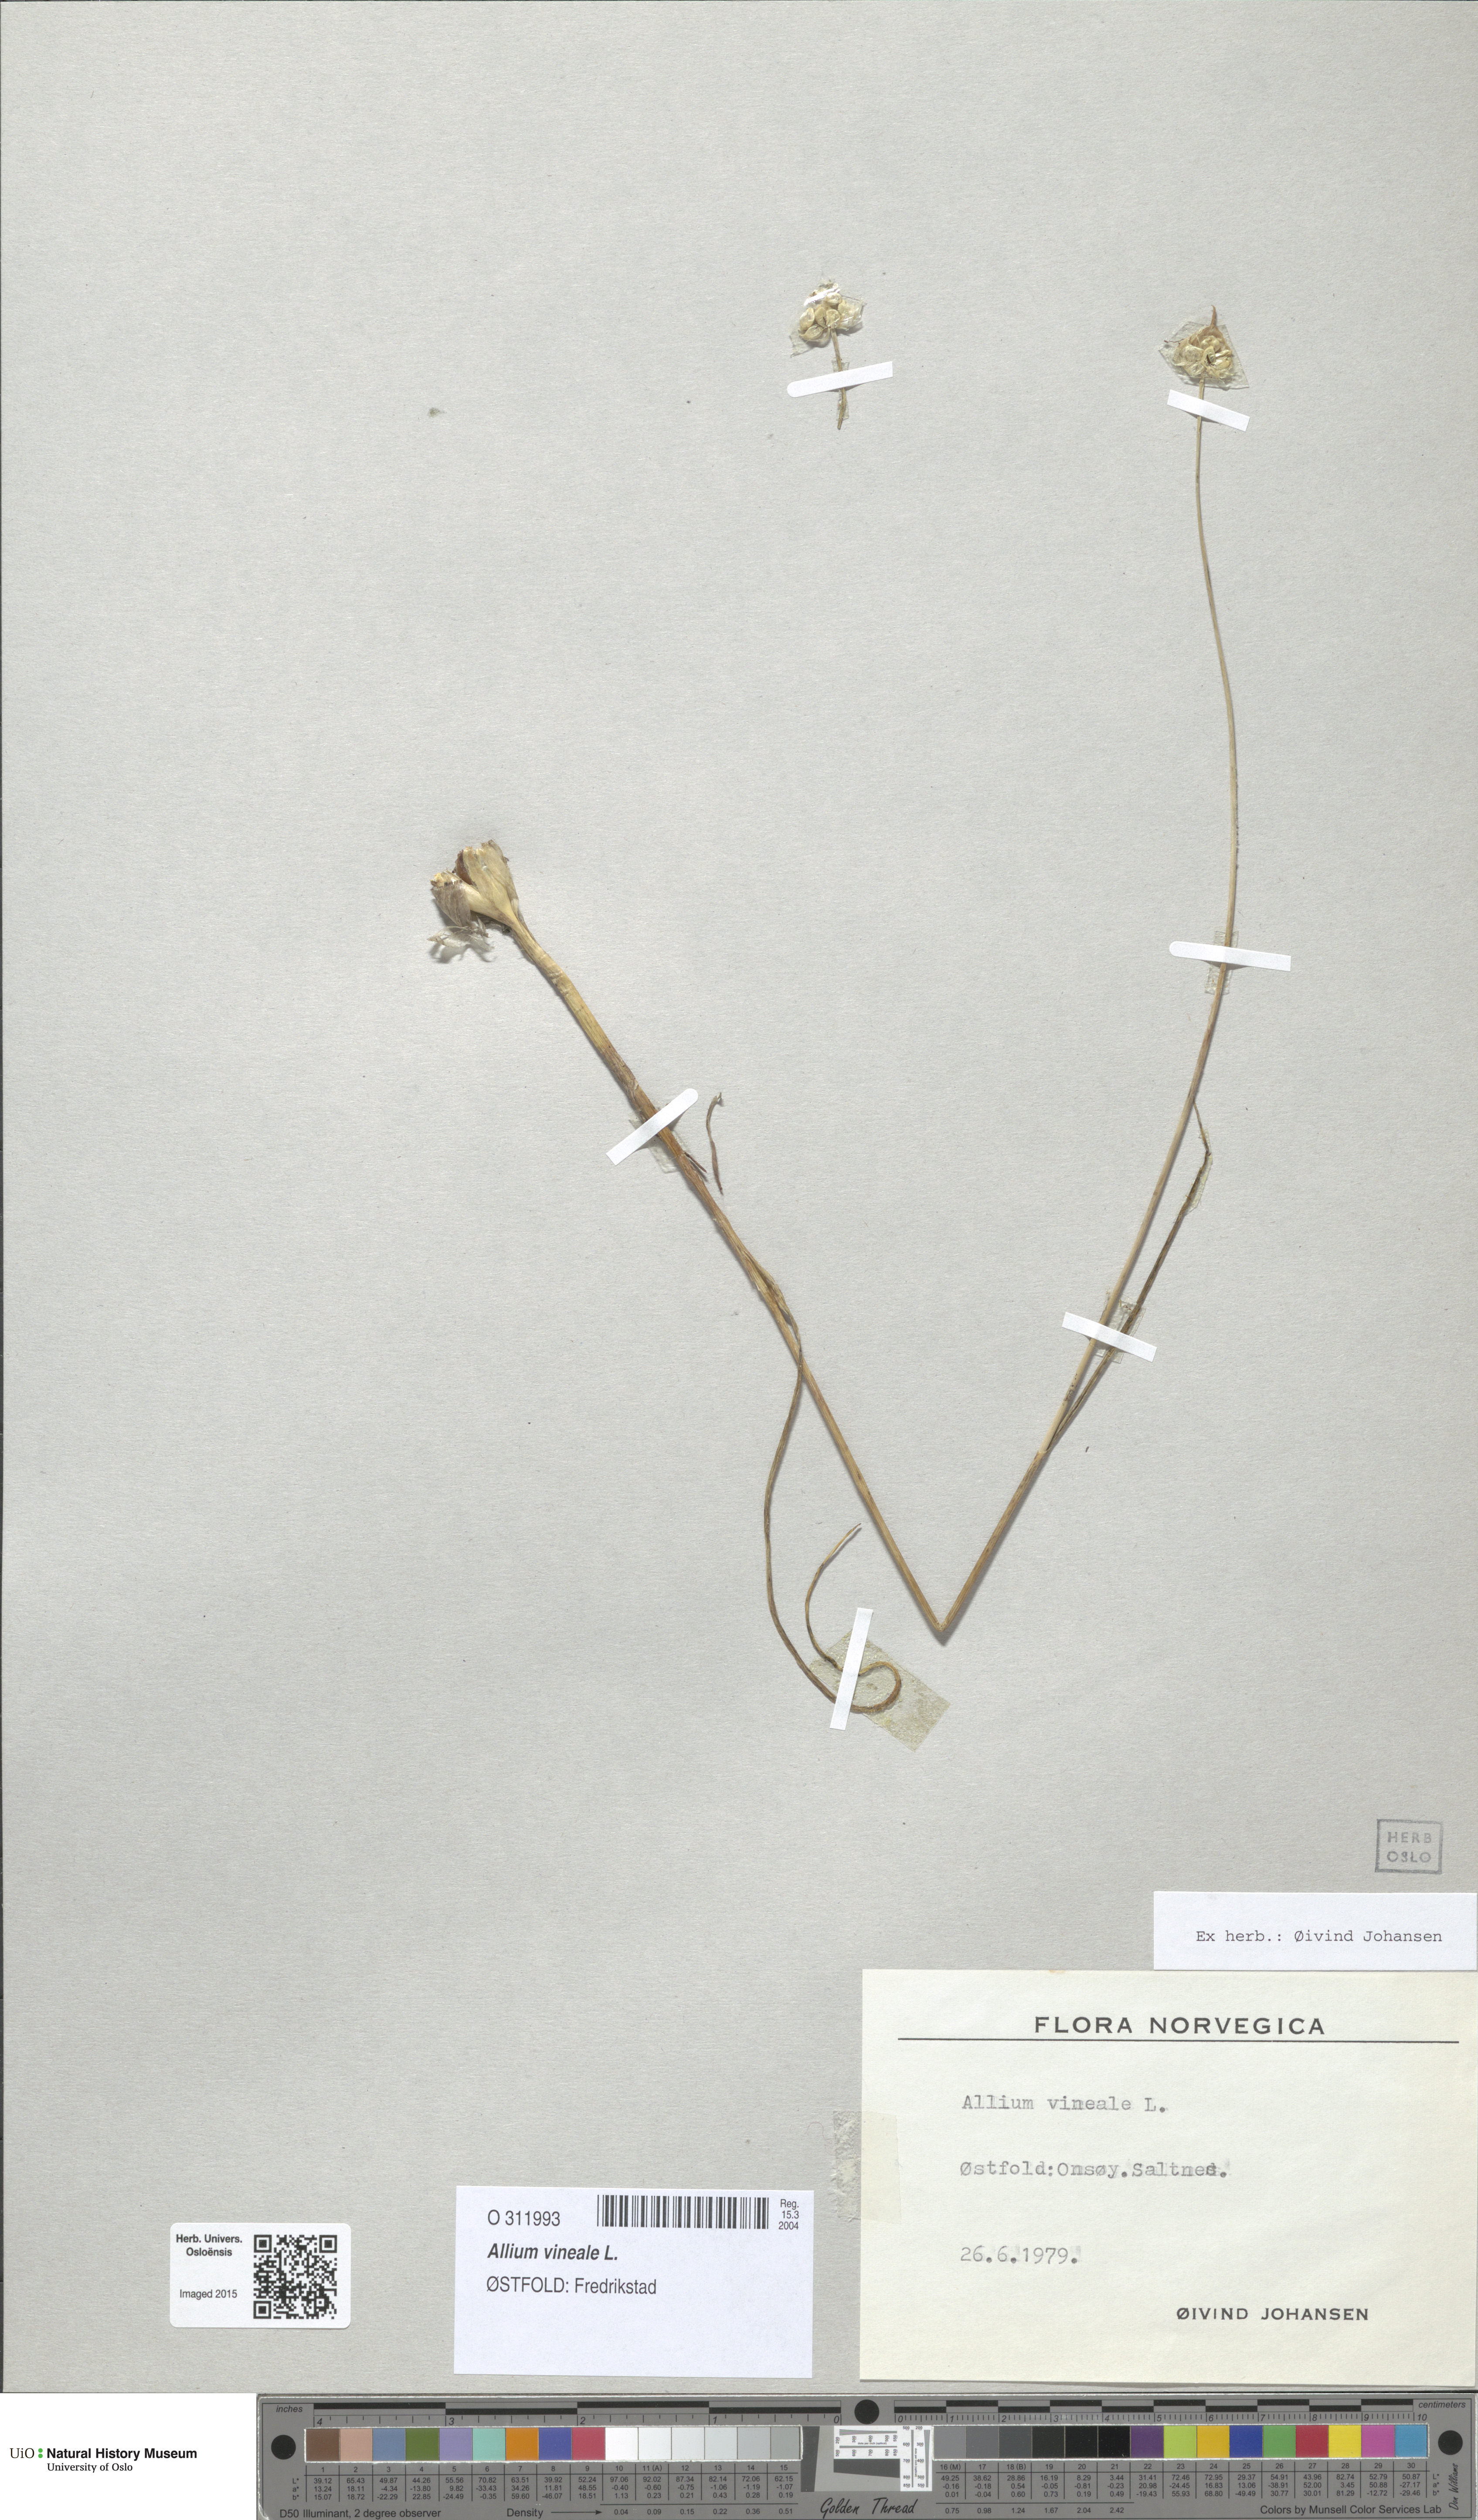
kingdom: Plantae
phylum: Tracheophyta
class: Liliopsida
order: Asparagales
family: Amaryllidaceae
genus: Allium
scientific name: Allium vineale
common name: Crow garlic
